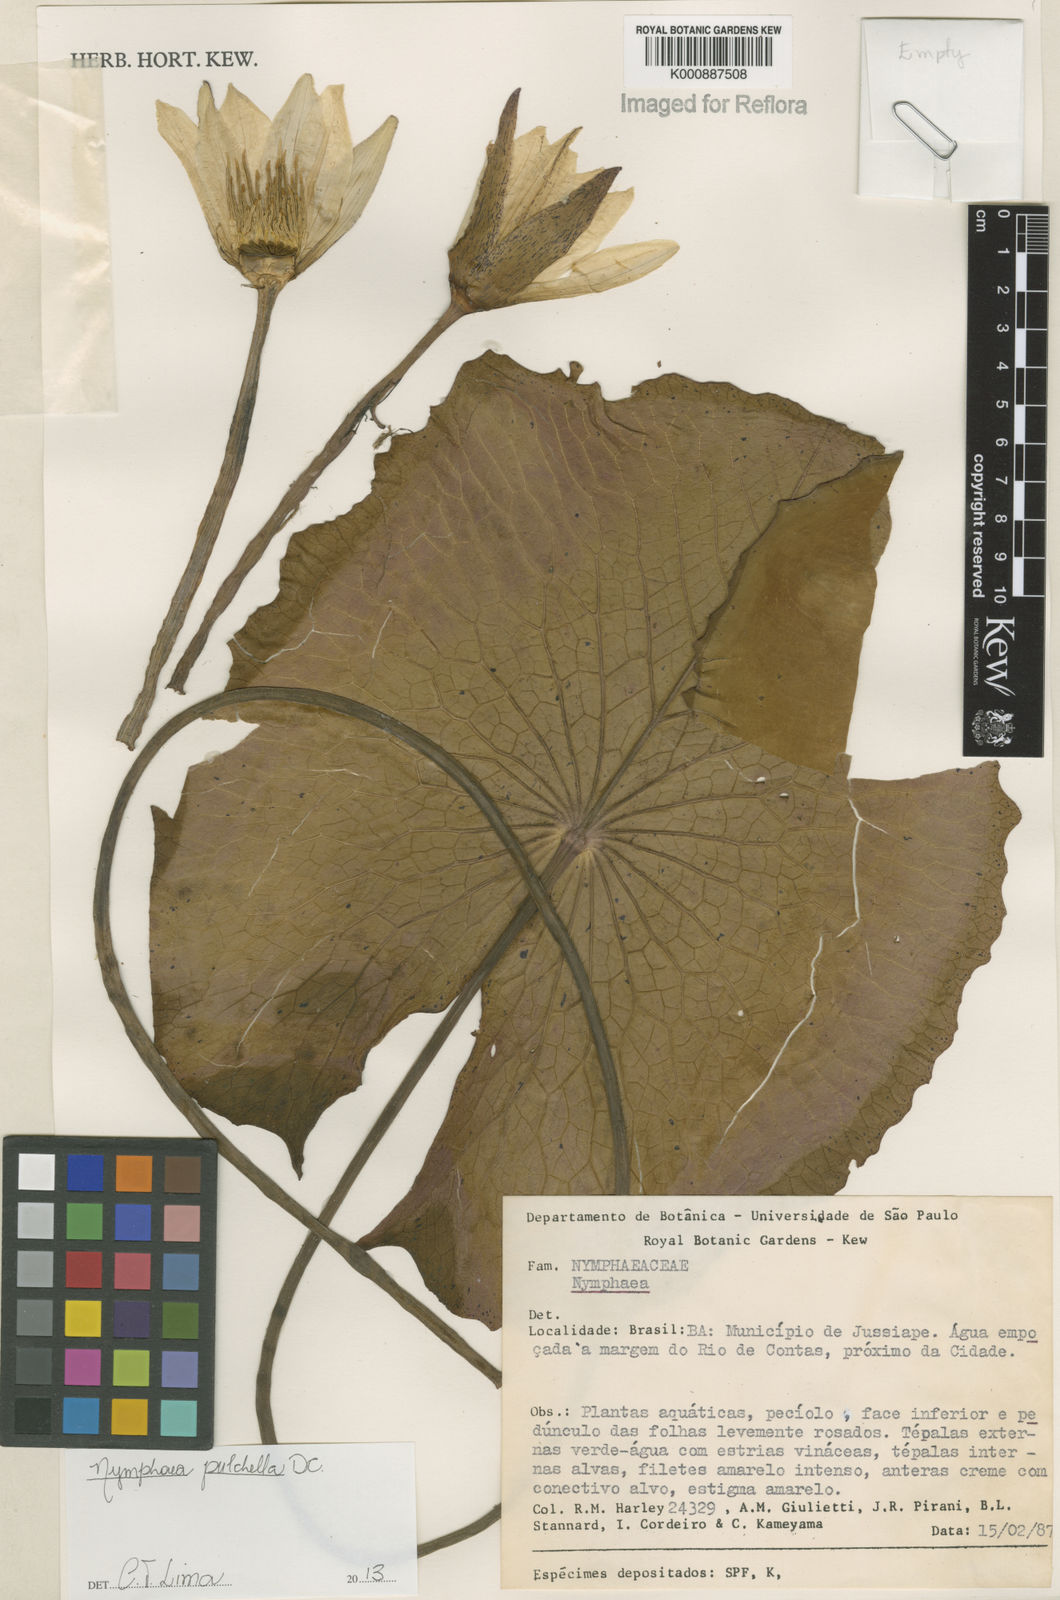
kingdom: Plantae
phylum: Tracheophyta
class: Magnoliopsida
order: Nymphaeales
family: Nymphaeaceae
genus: Nymphaea
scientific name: Nymphaea pulchella
